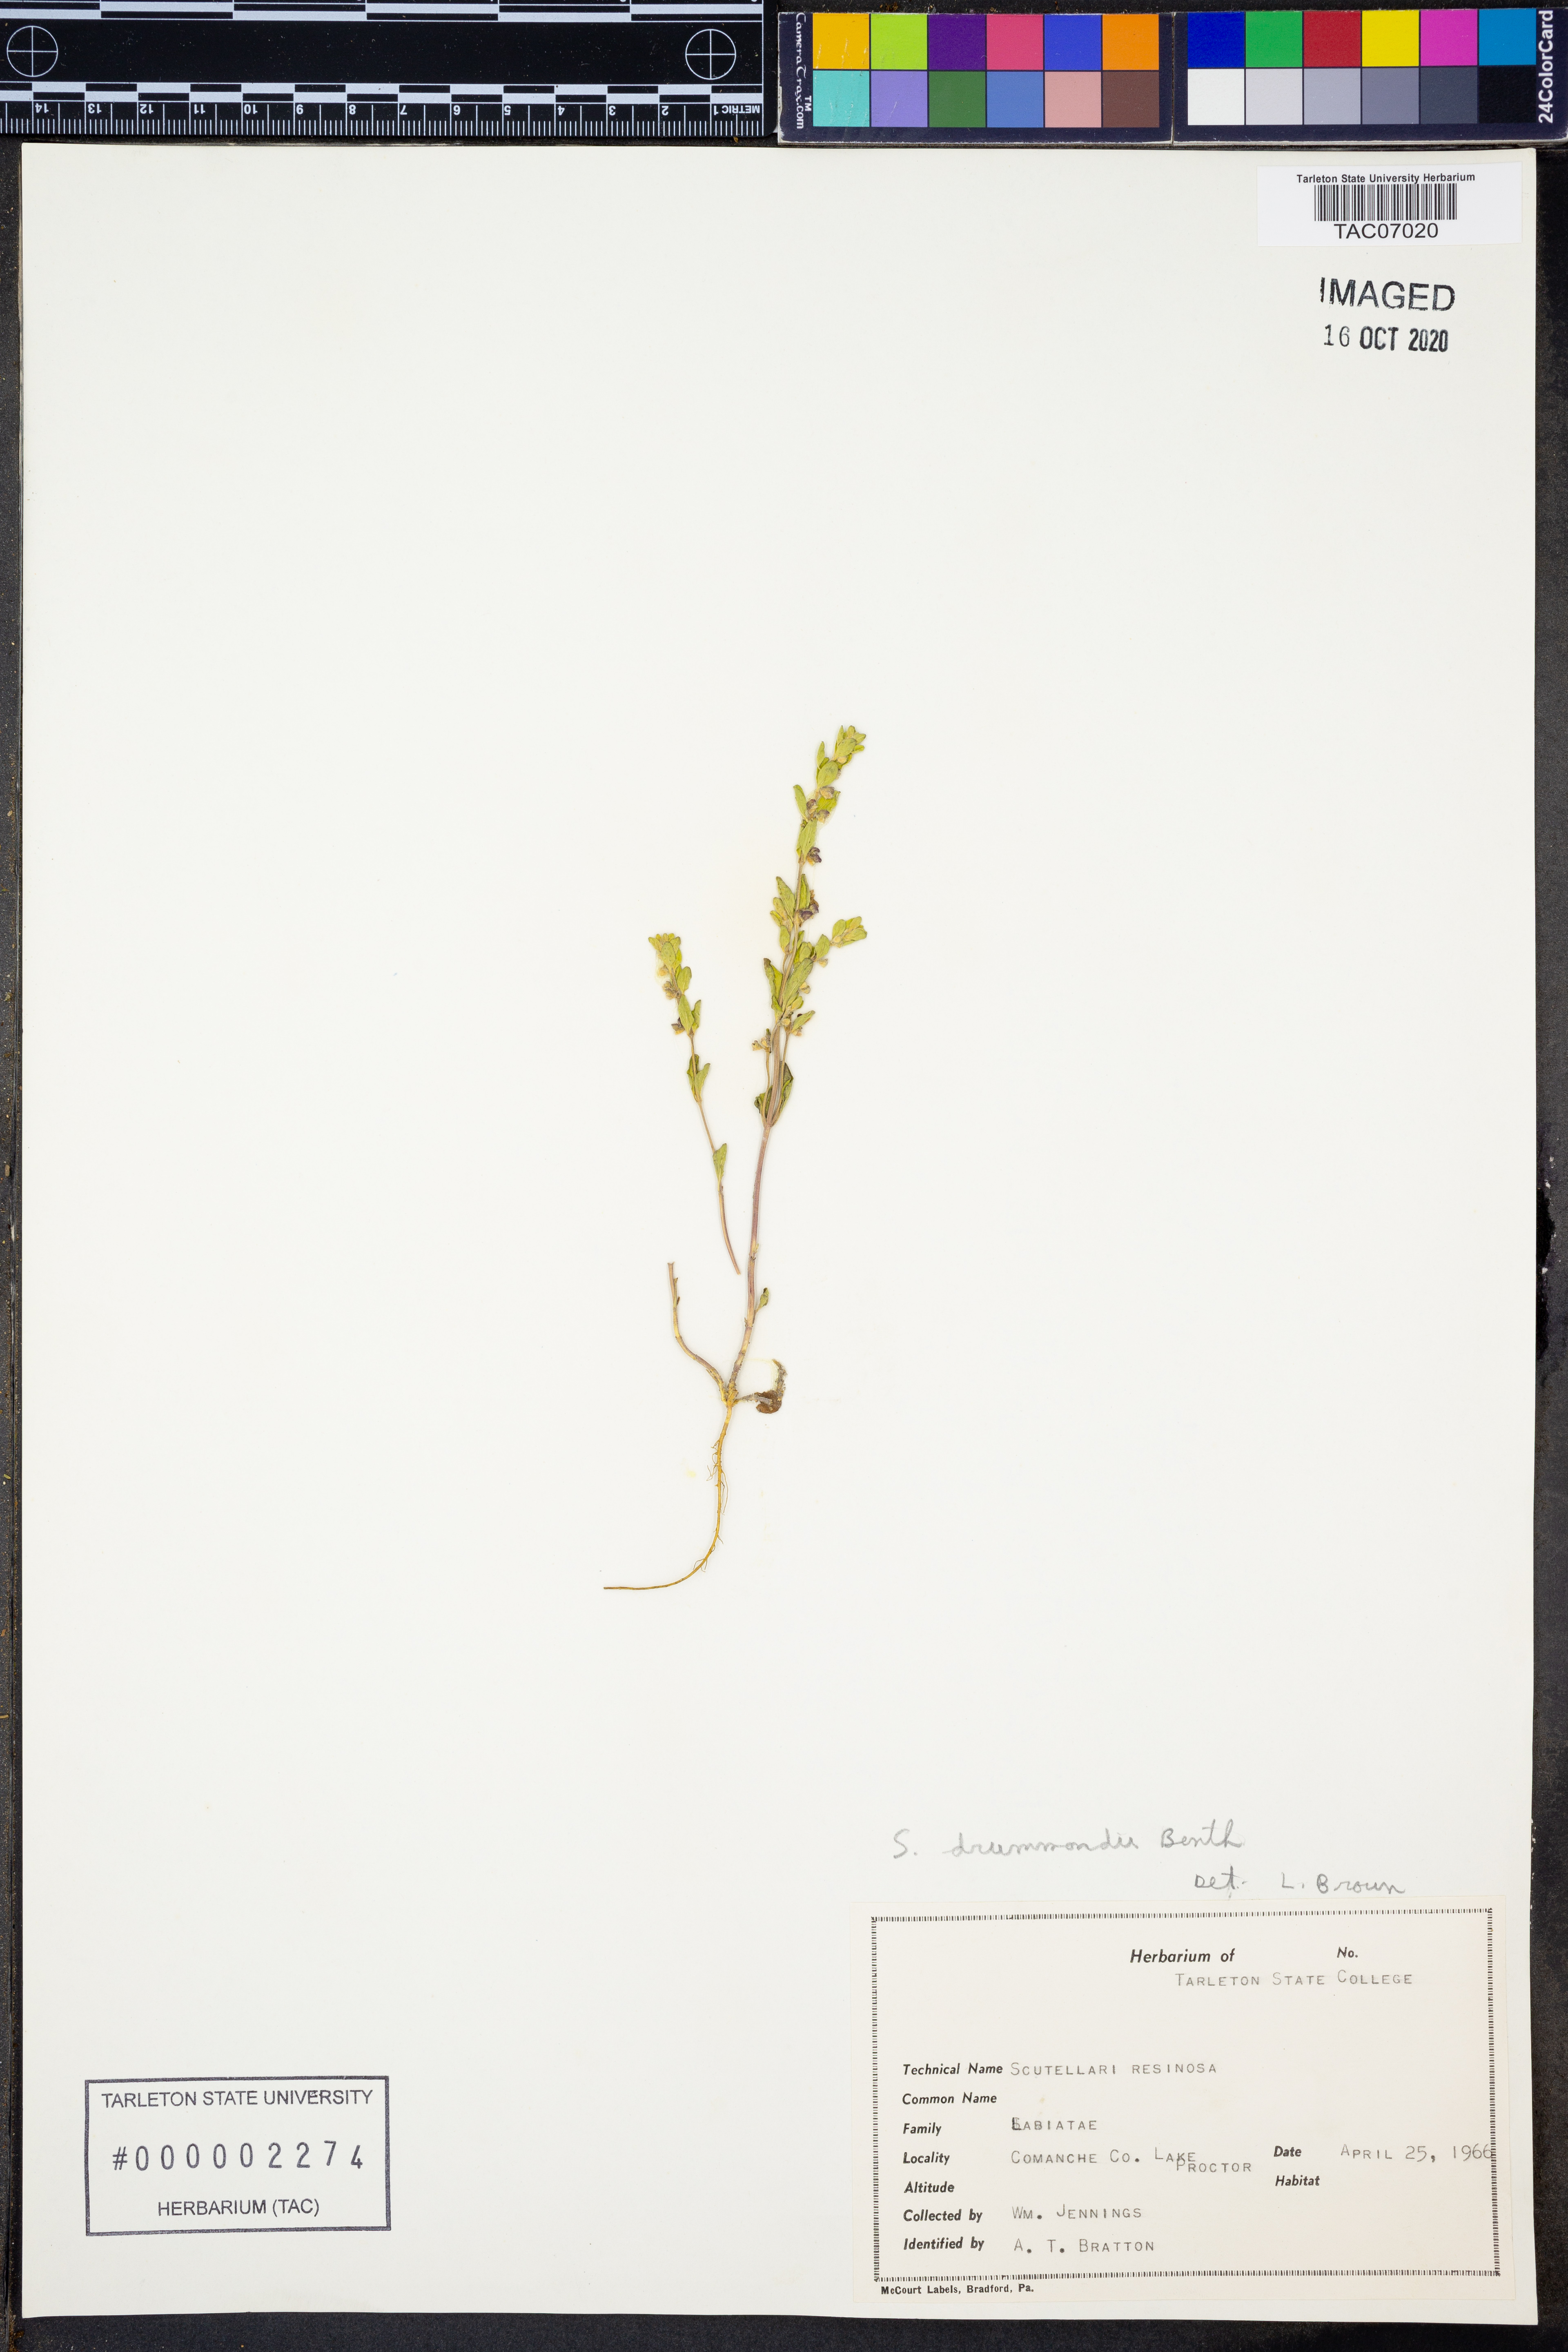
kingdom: Plantae
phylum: Tracheophyta
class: Magnoliopsida
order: Lamiales
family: Lamiaceae
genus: Scutellaria
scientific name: Scutellaria drummondii
